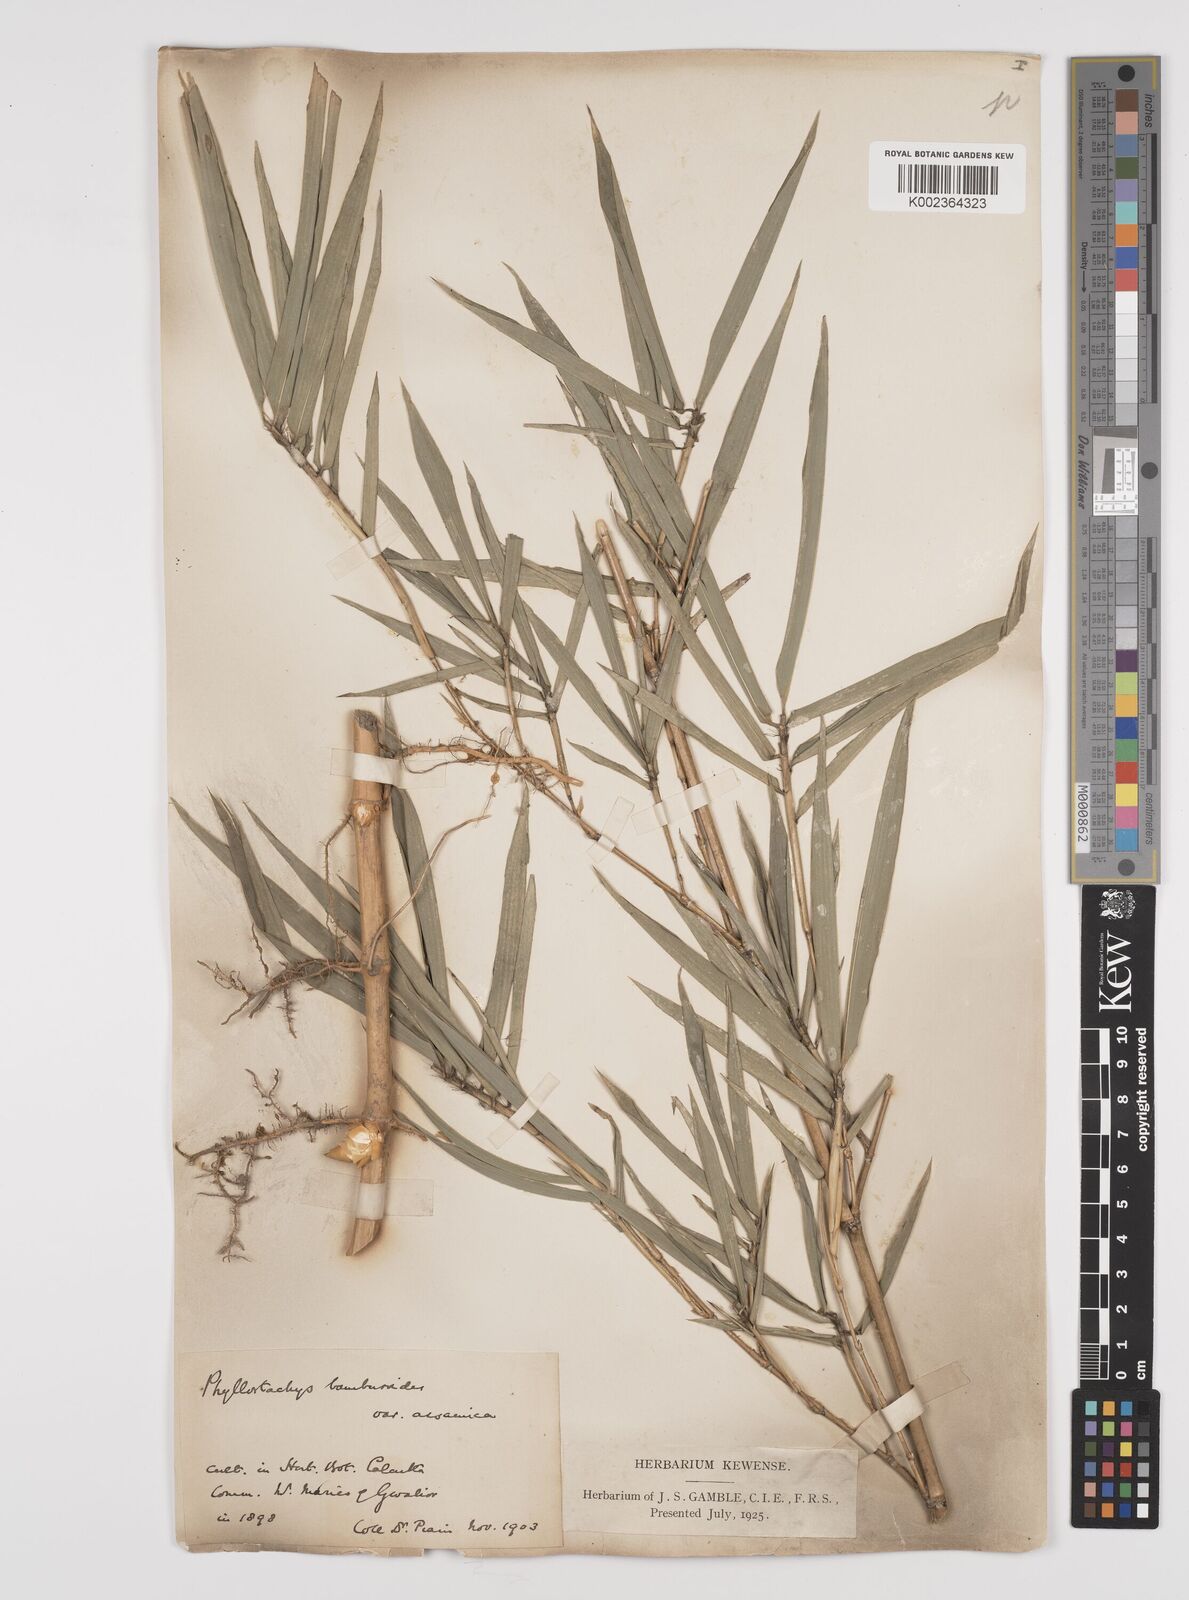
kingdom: Plantae
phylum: Tracheophyta
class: Liliopsida
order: Poales
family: Poaceae
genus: Phyllostachys
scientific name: Phyllostachys reticulata
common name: Bamboo
